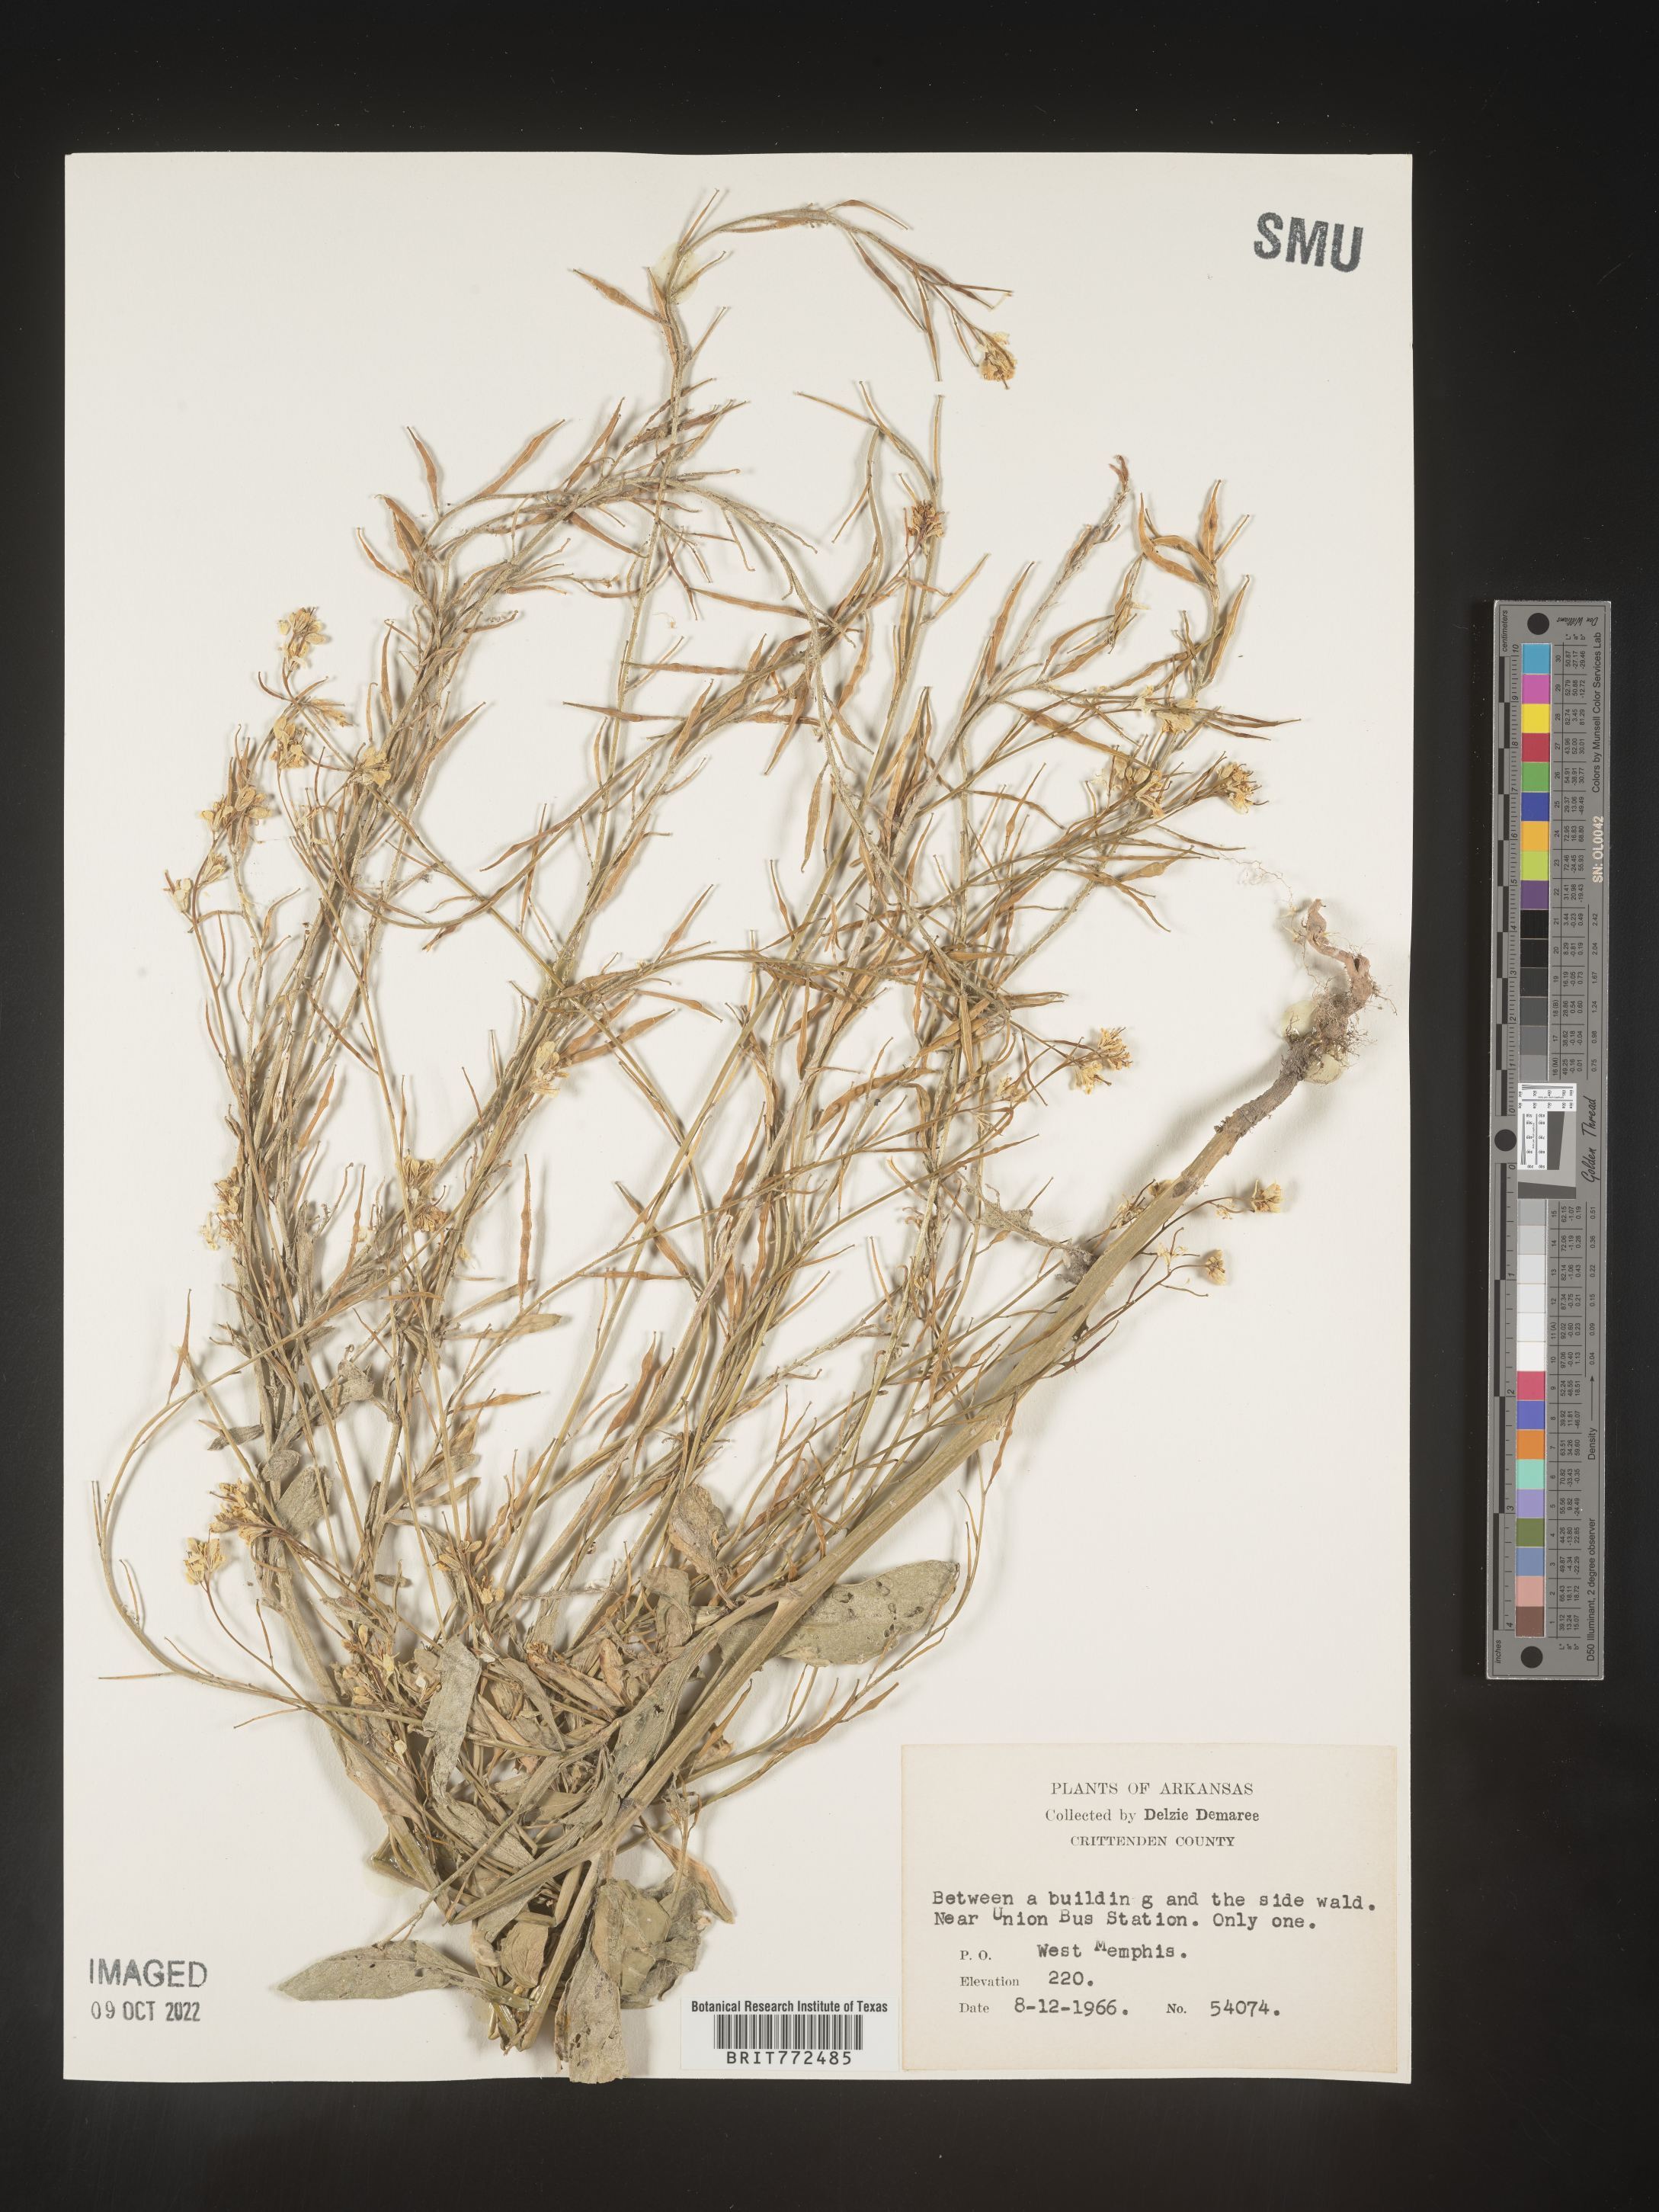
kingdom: Plantae
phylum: Tracheophyta
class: Magnoliopsida
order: Brassicales
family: Brassicaceae
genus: Brassica
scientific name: Brassica
